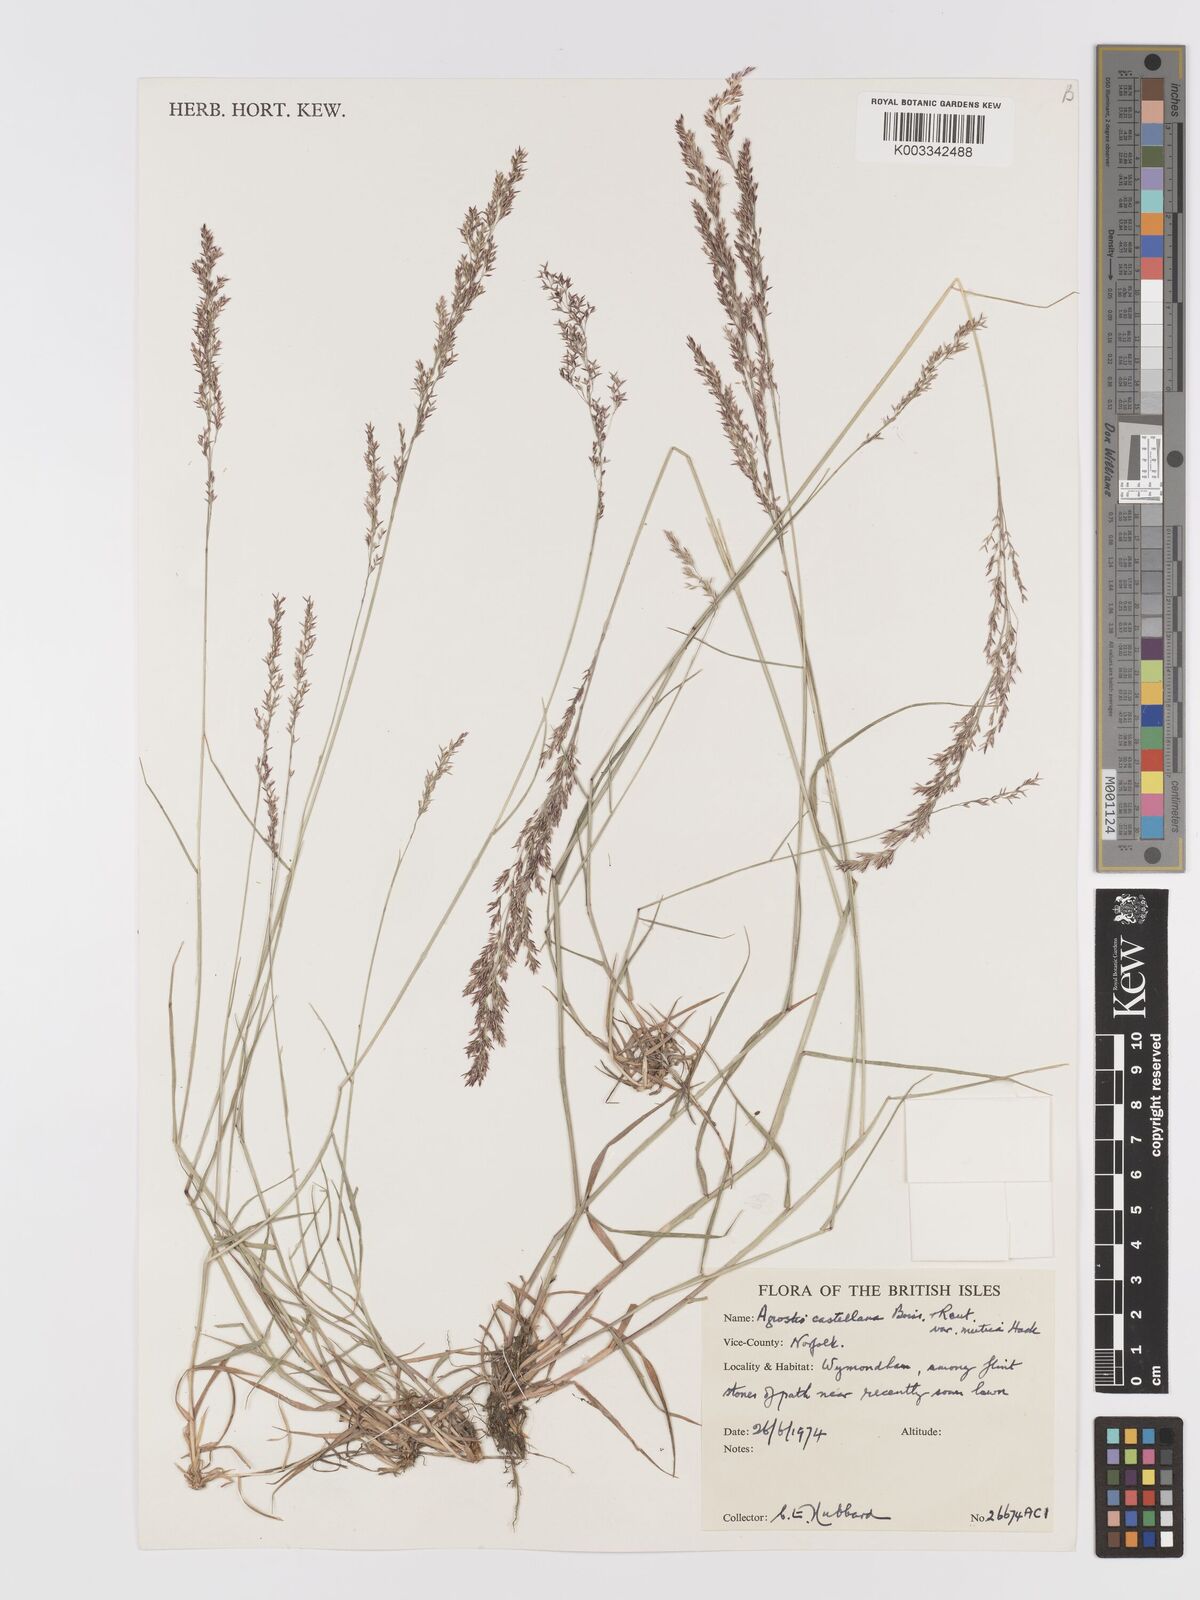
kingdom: Plantae
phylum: Tracheophyta
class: Liliopsida
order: Poales
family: Poaceae
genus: Agrostis
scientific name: Agrostis castellana
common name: Highland bent
